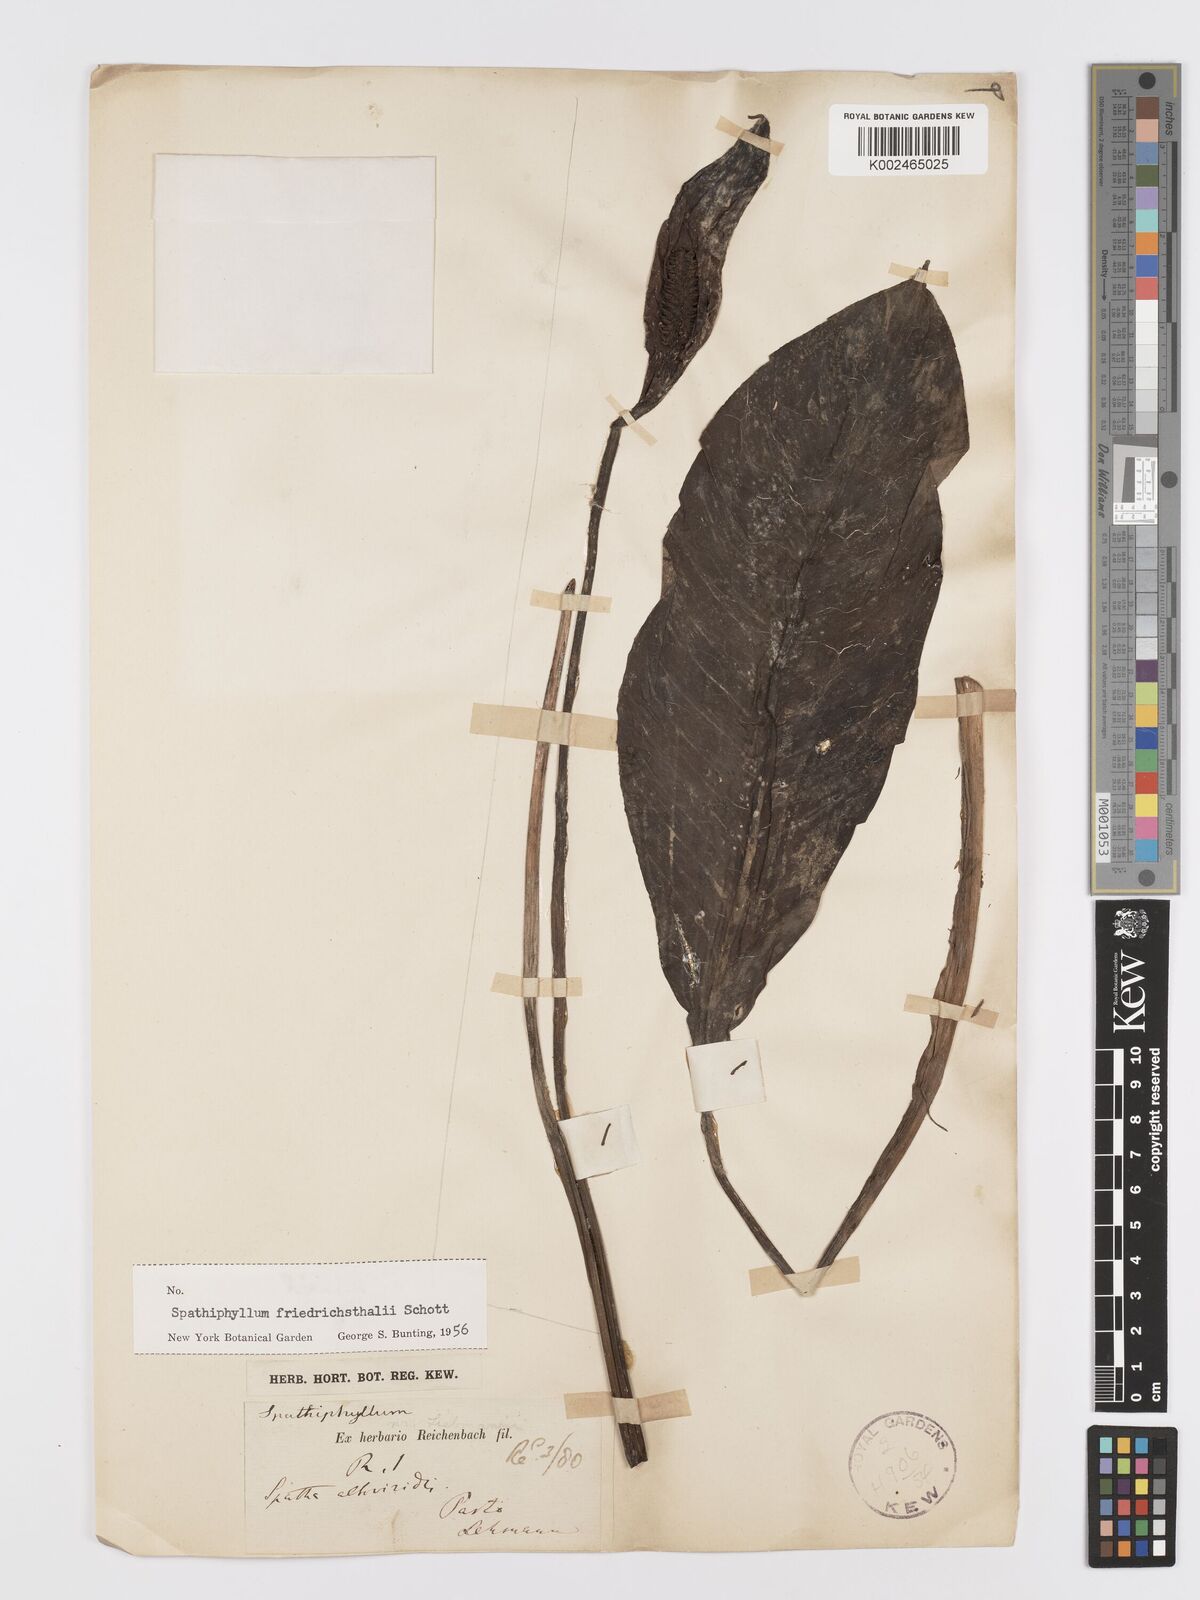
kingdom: Plantae
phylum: Tracheophyta
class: Liliopsida
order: Alismatales
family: Araceae
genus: Spathiphyllum
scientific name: Spathiphyllum friedrichsthalii
